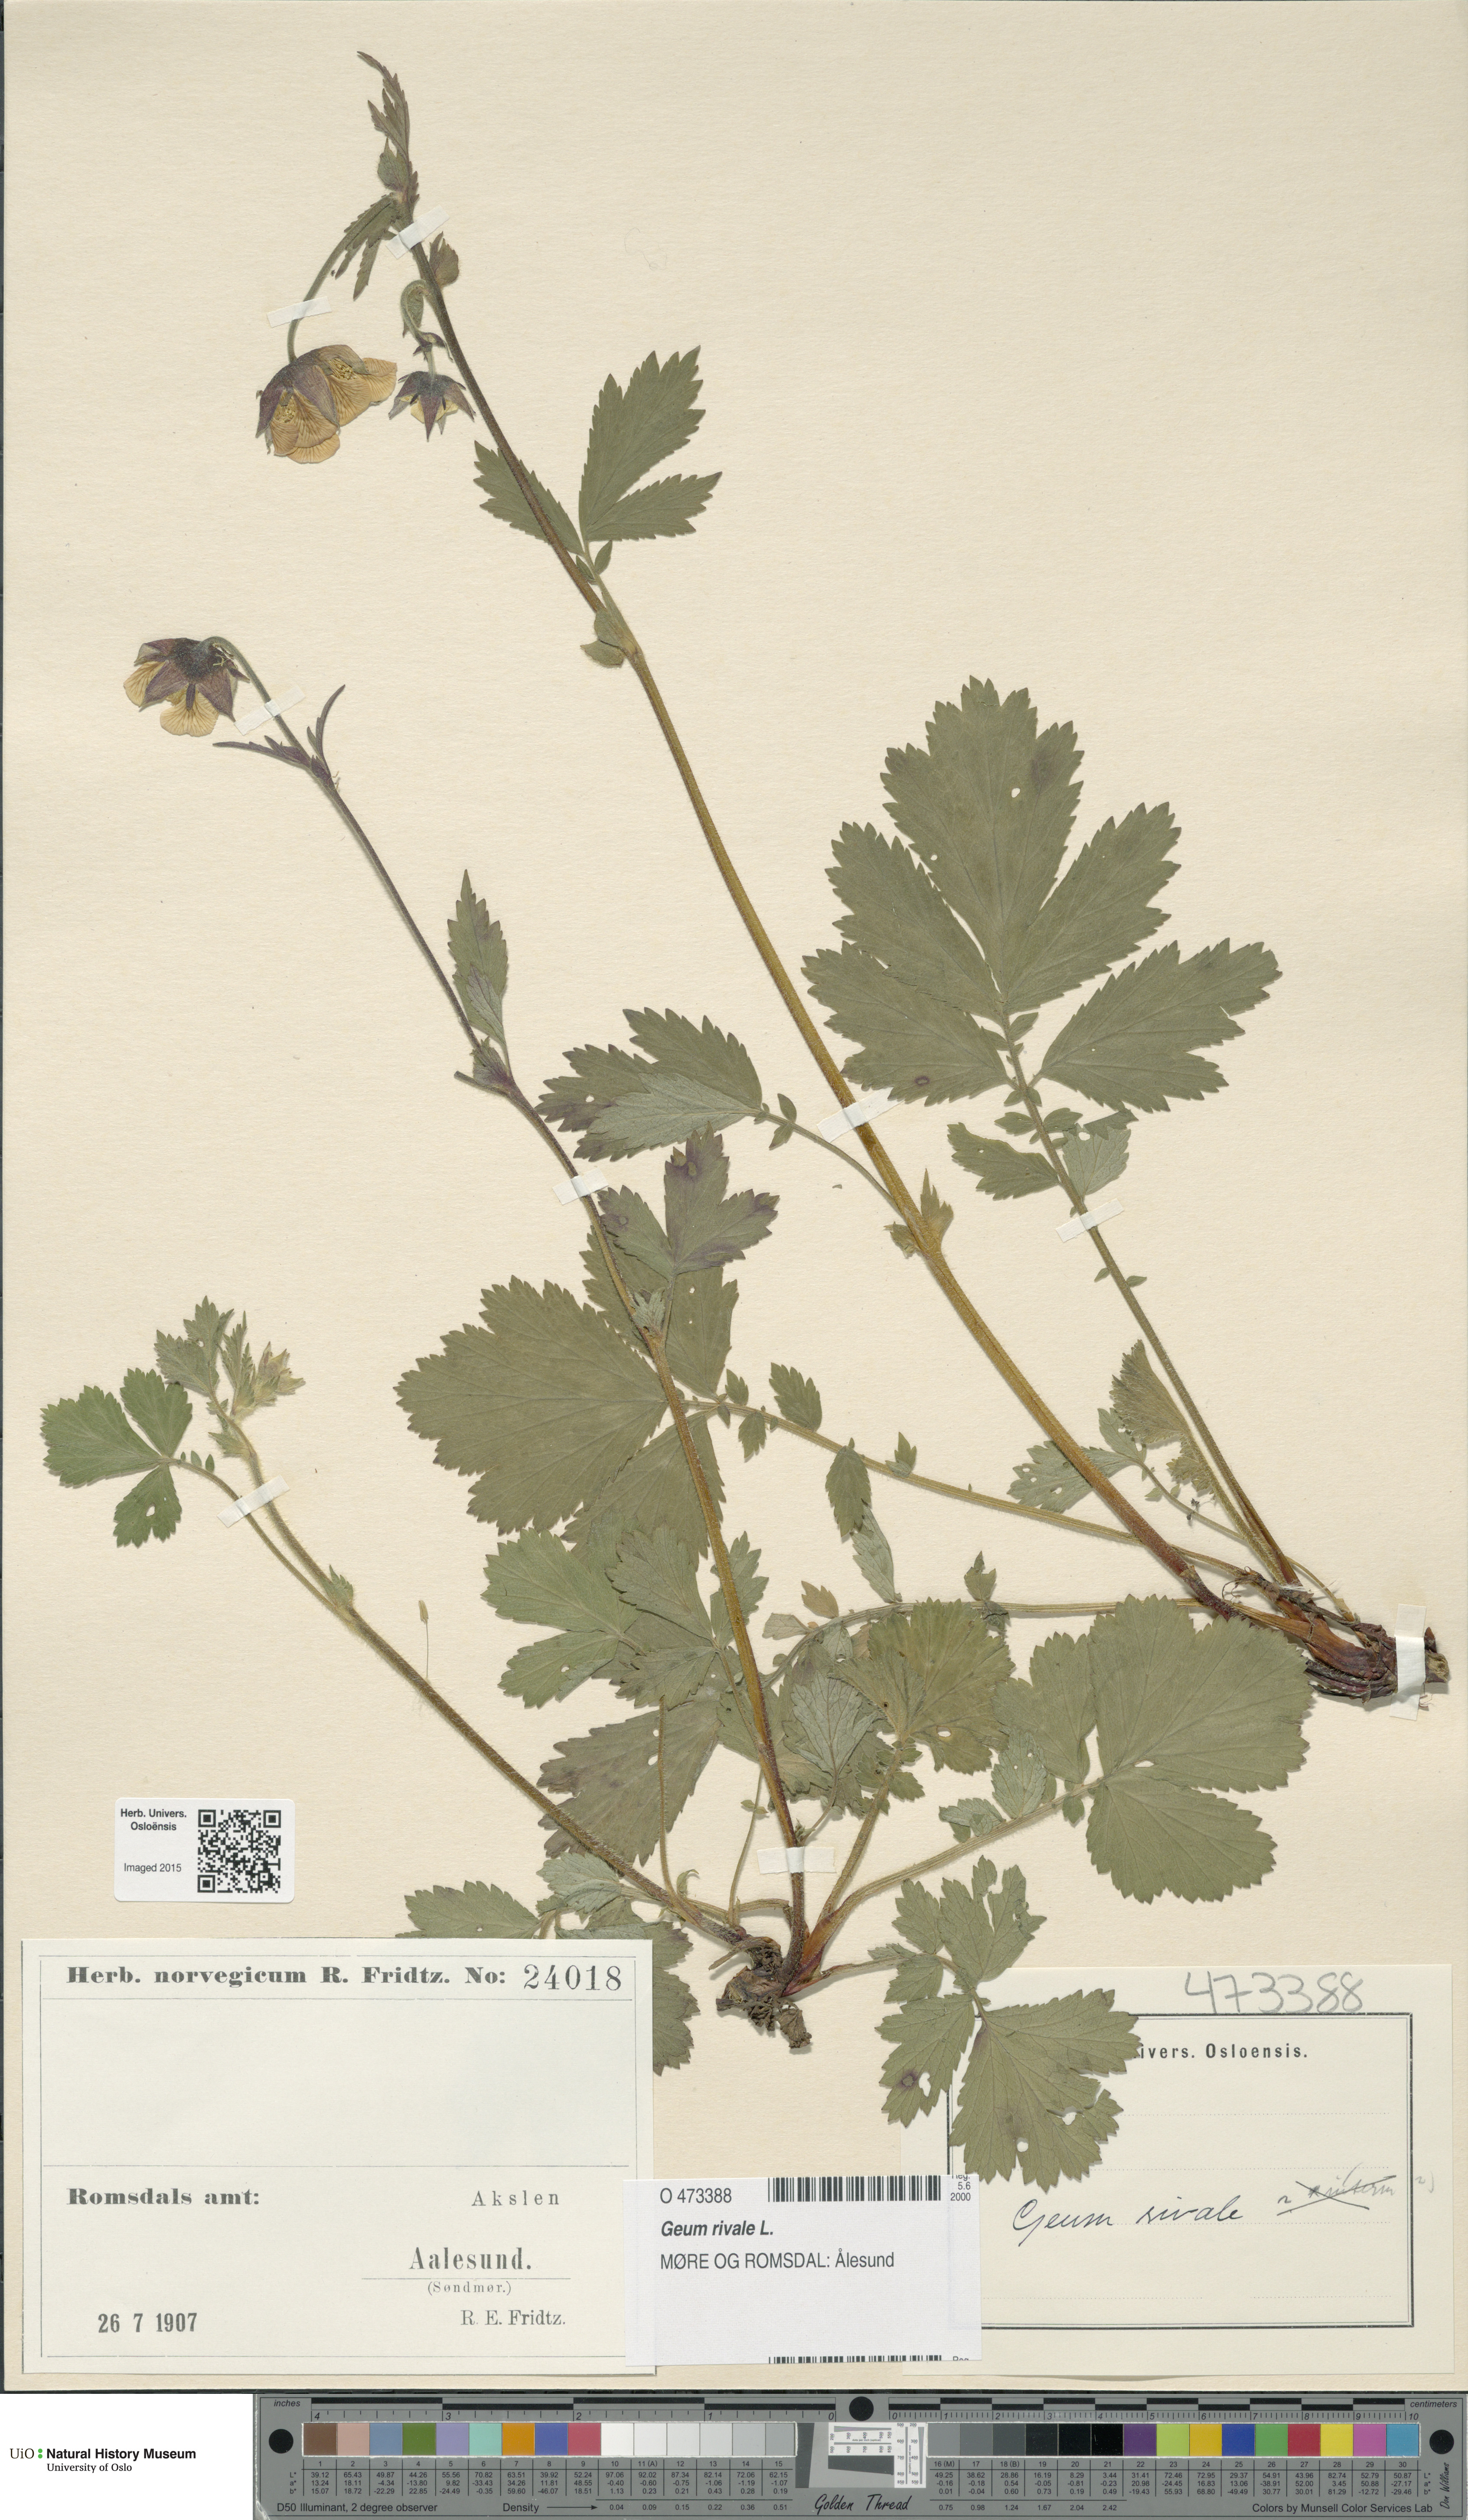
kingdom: Plantae
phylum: Tracheophyta
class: Magnoliopsida
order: Rosales
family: Rosaceae
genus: Geum
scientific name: Geum rivale
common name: Water avens
